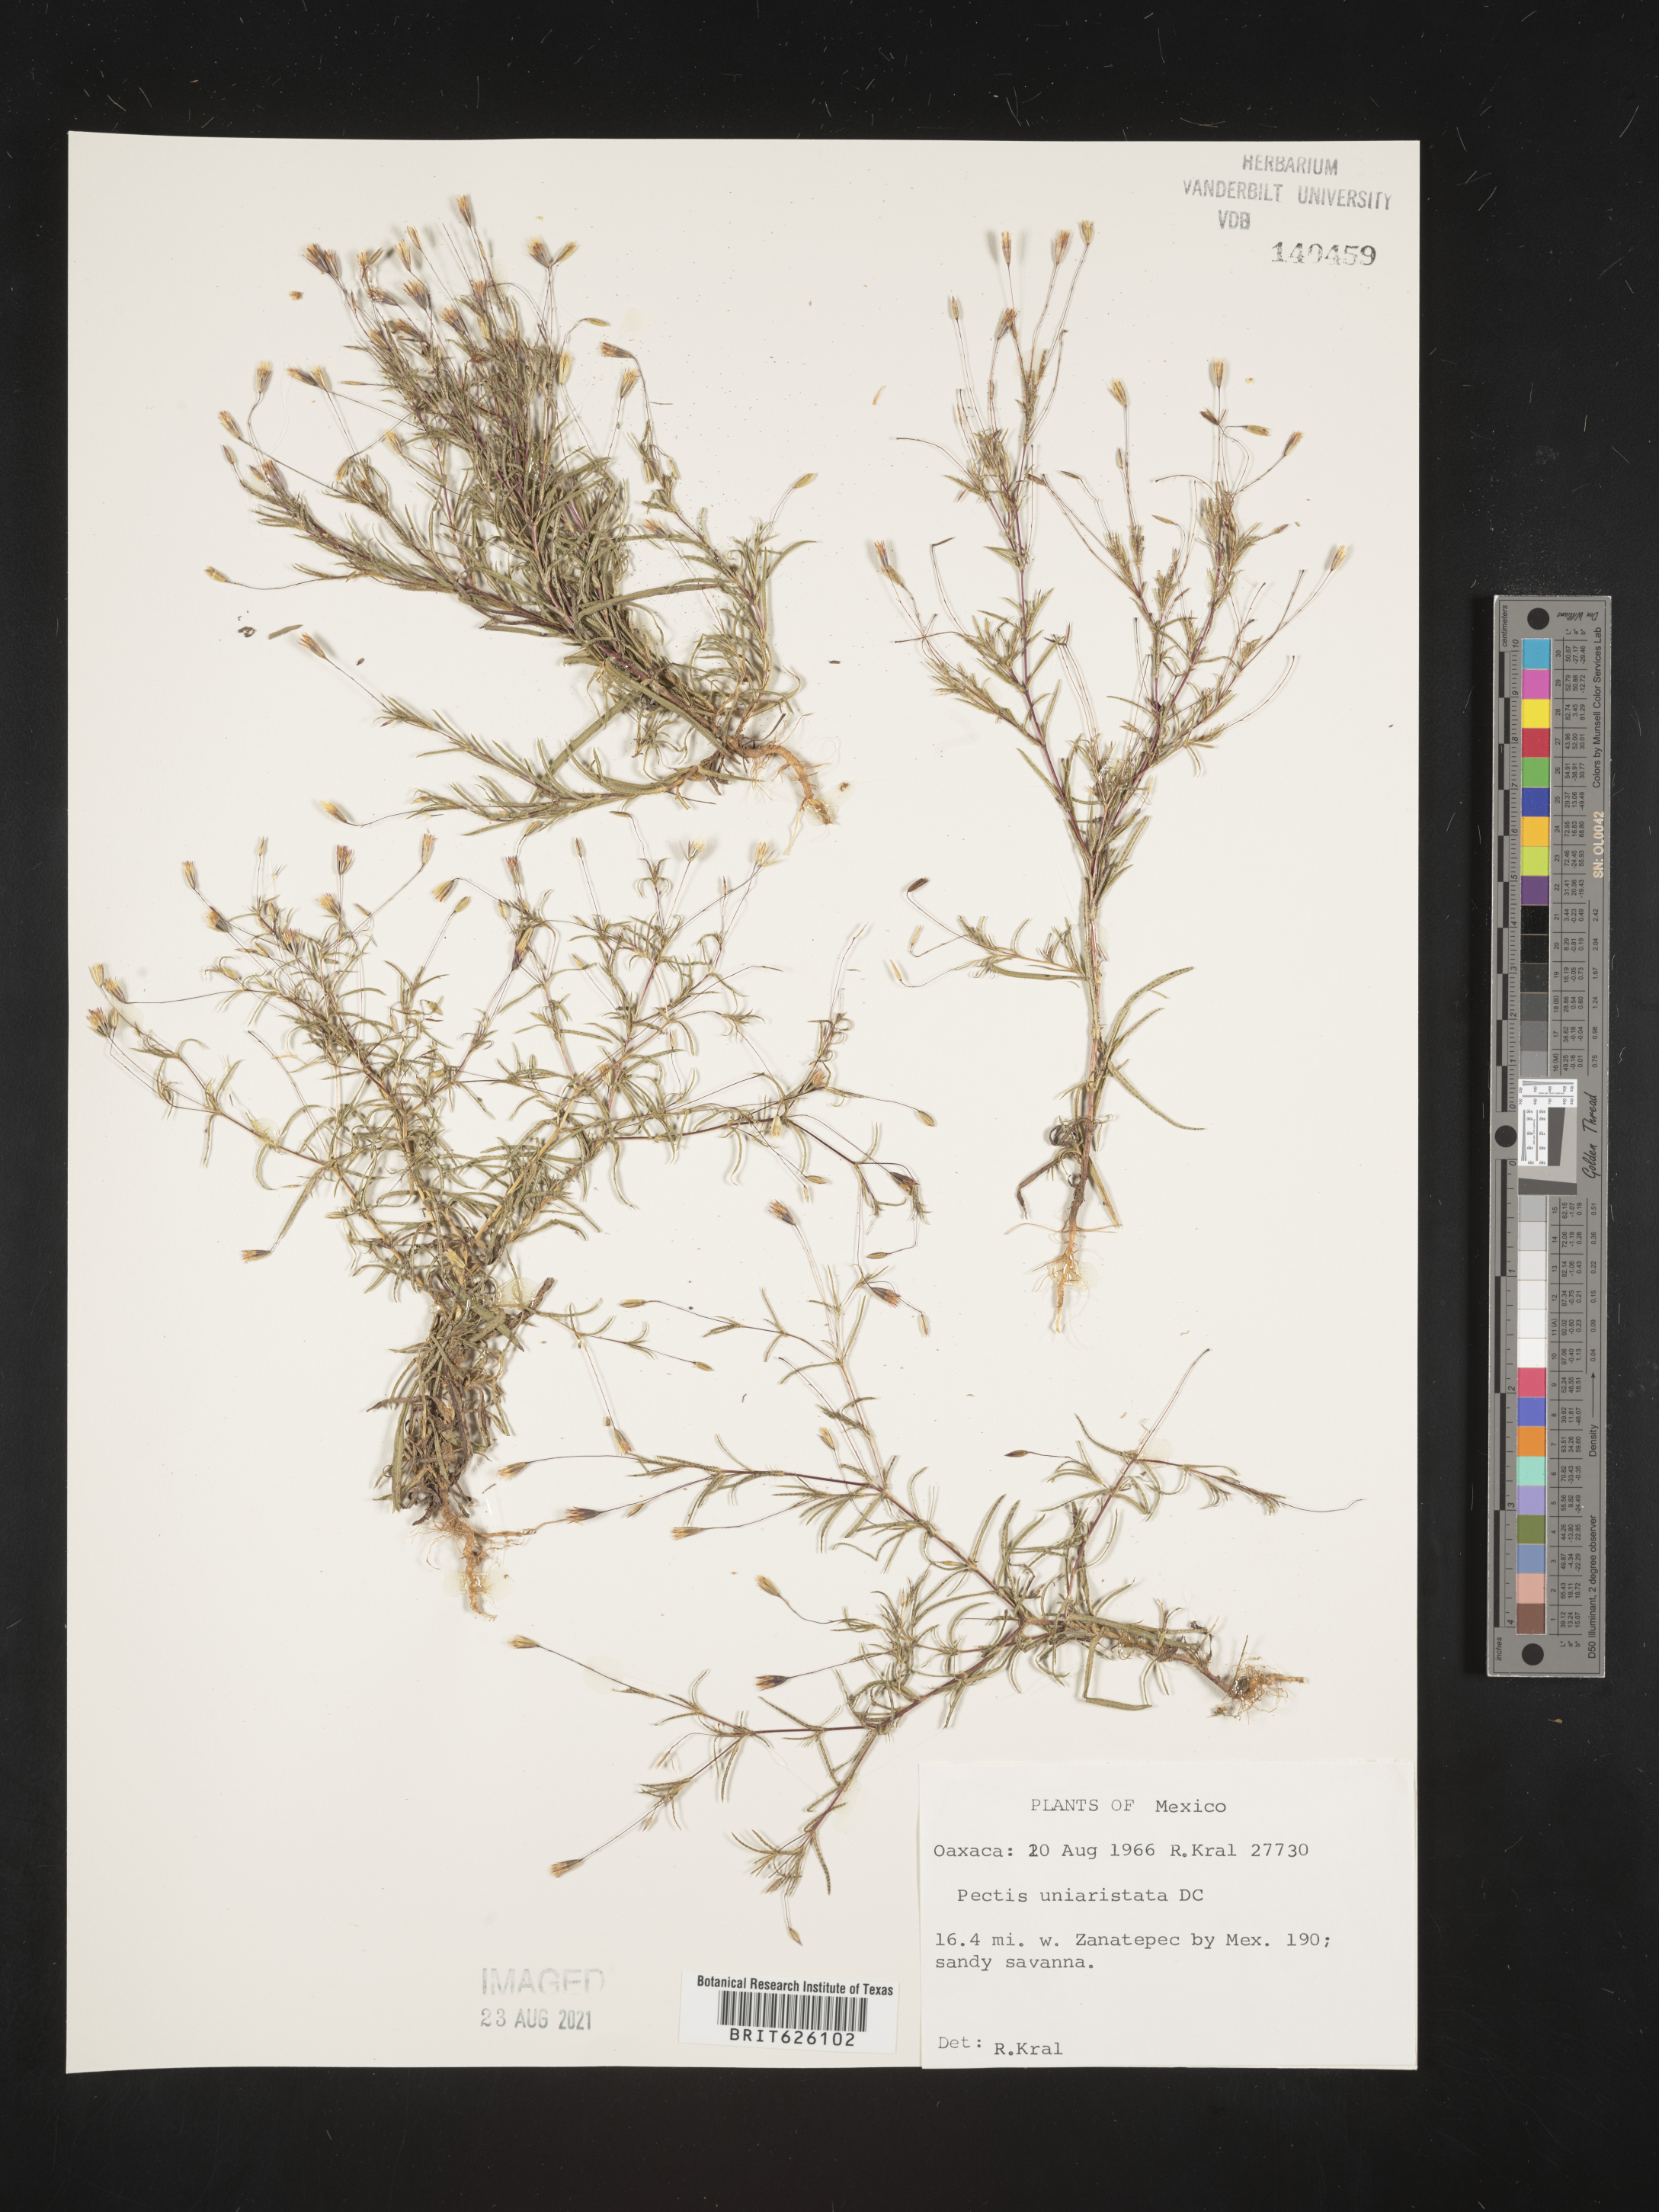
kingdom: Plantae
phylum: Tracheophyta
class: Magnoliopsida
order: Asterales
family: Asteraceae
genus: Pectis
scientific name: Pectis
